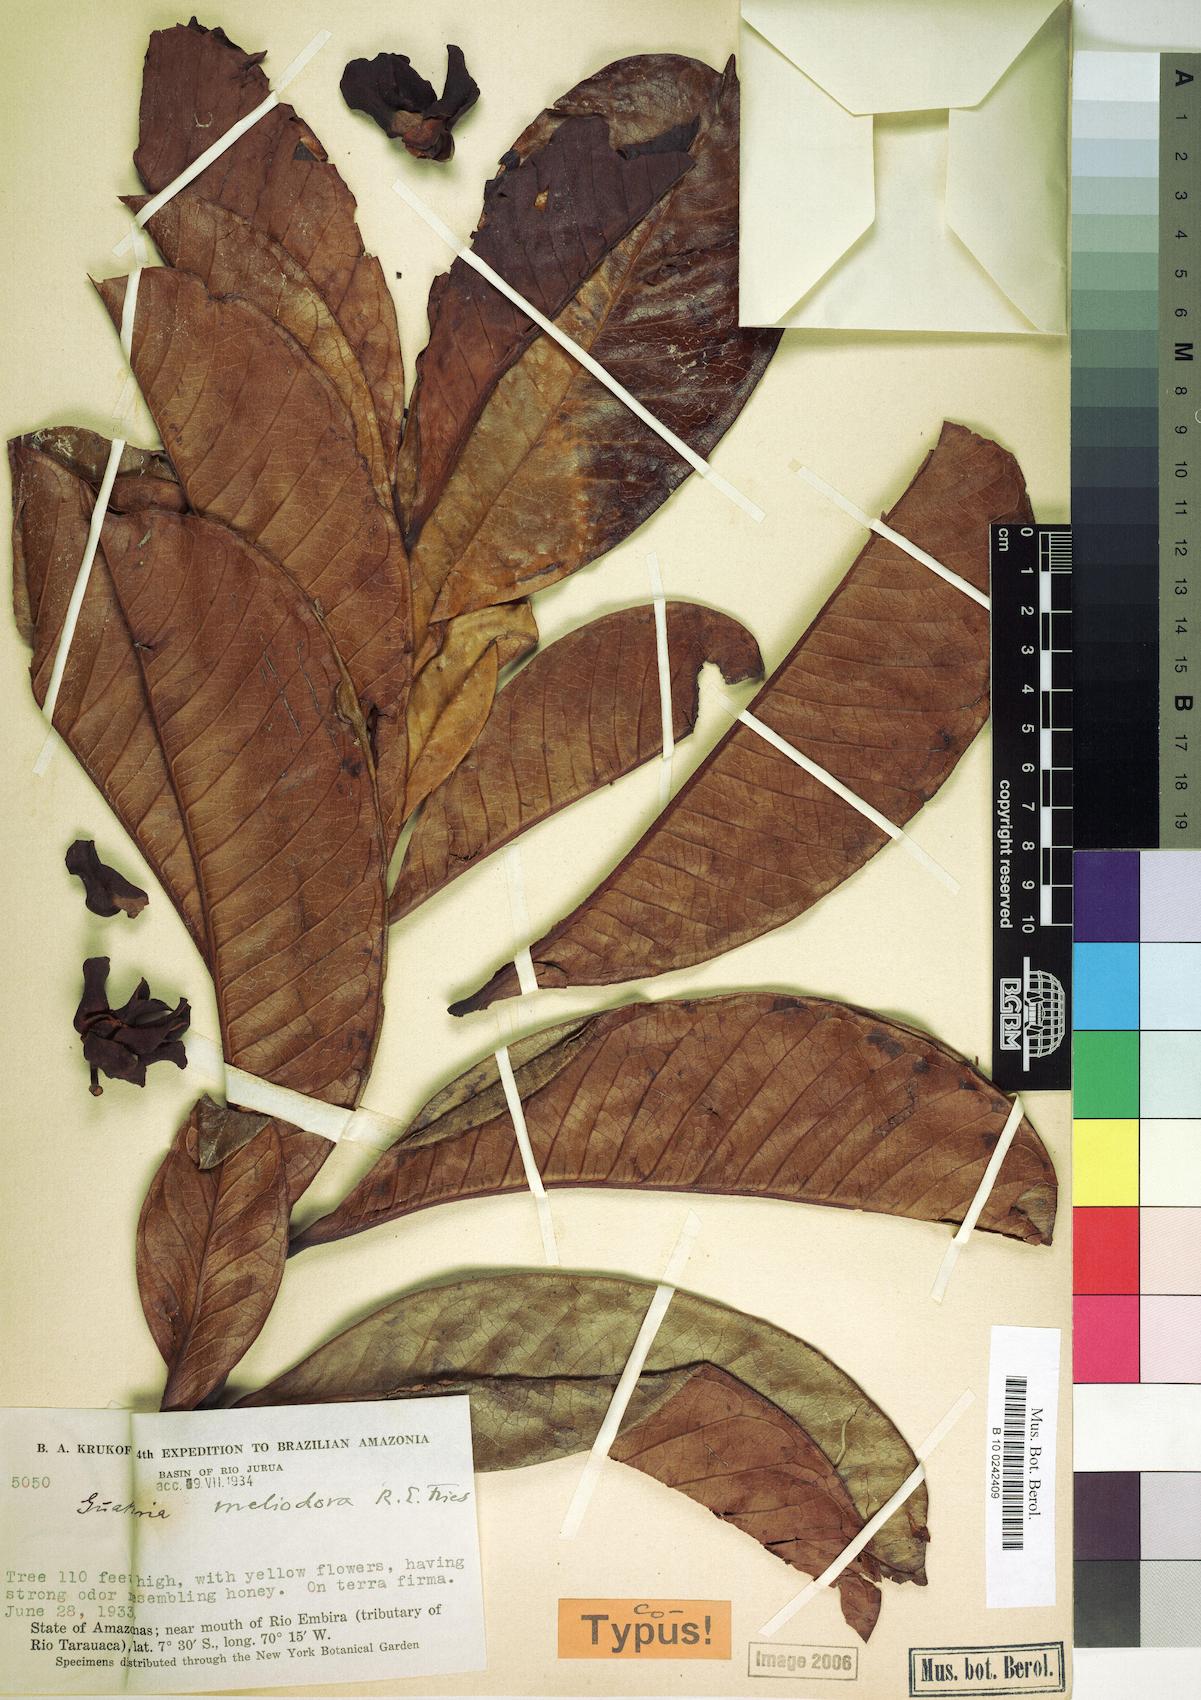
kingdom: Plantae
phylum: Tracheophyta
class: Magnoliopsida
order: Magnoliales
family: Annonaceae
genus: Guatteria
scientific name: Guatteria meliodora
